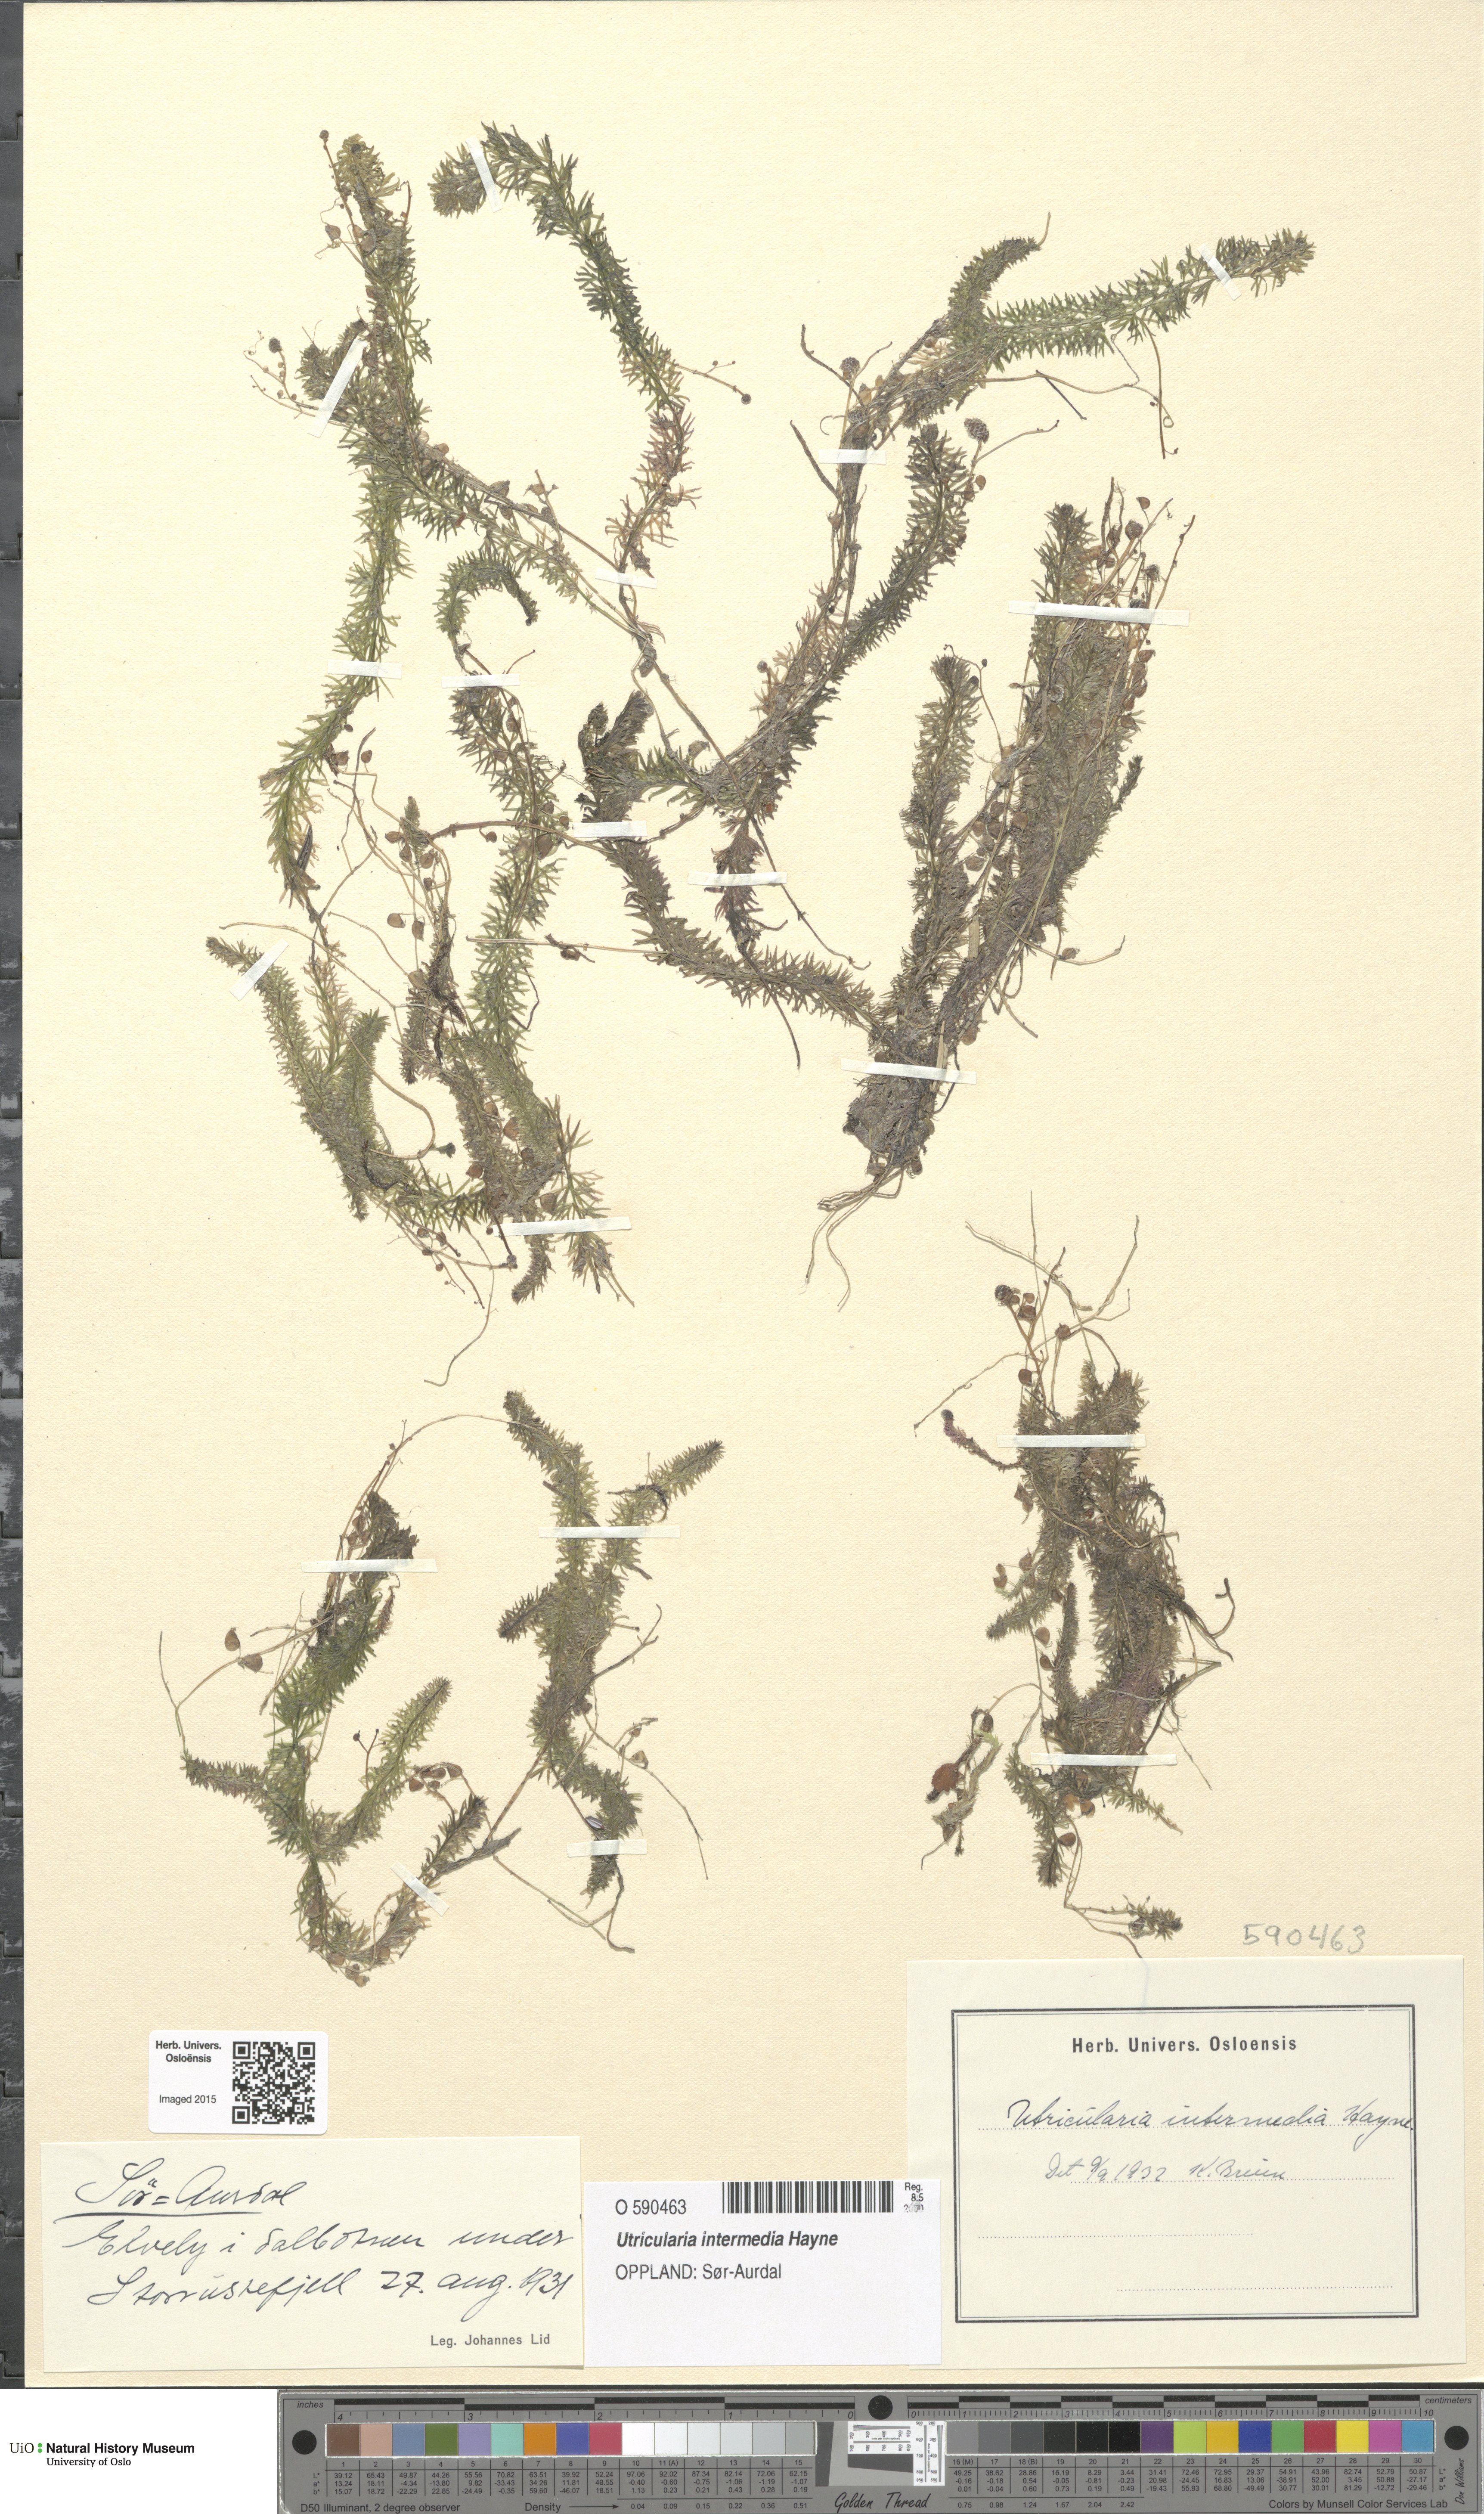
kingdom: Plantae
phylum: Tracheophyta
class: Magnoliopsida
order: Lamiales
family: Lentibulariaceae
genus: Utricularia
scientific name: Utricularia intermedia
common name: Intermediate bladderwort
